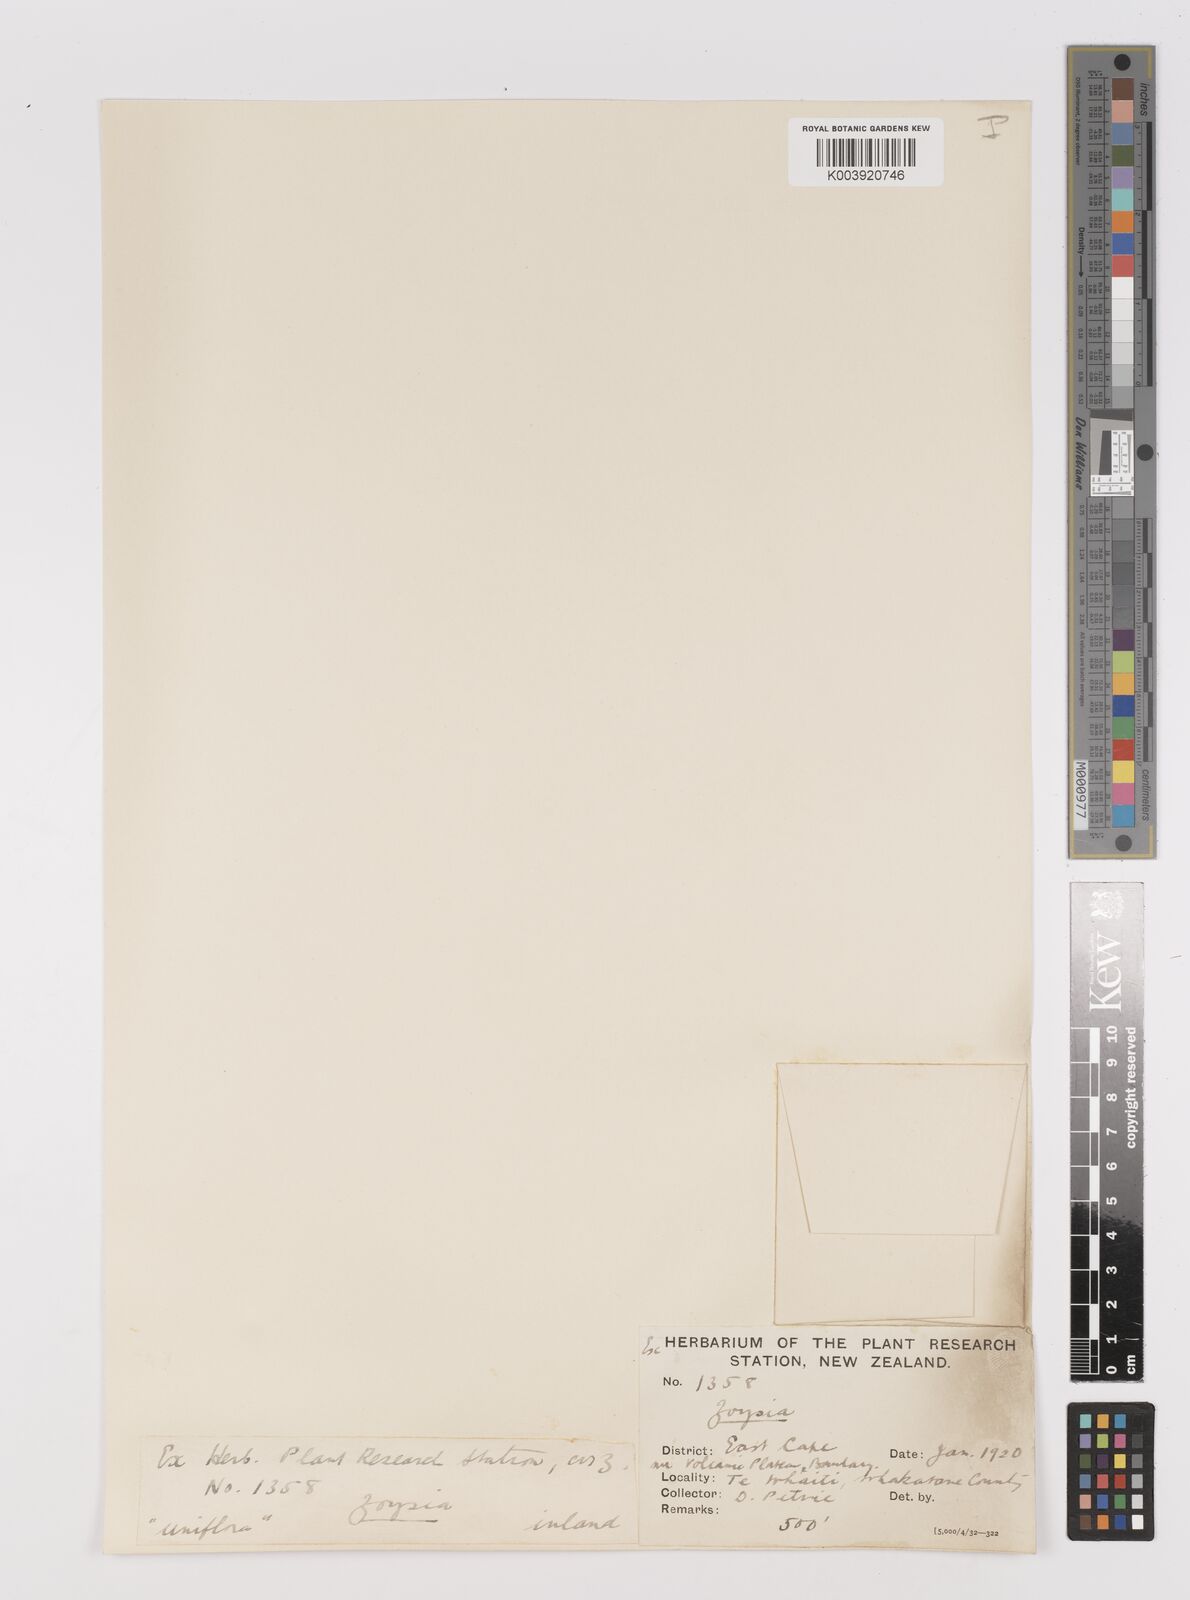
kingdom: Plantae
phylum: Tracheophyta
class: Liliopsida
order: Poales
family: Poaceae
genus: Zoysia
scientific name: Zoysia minima
